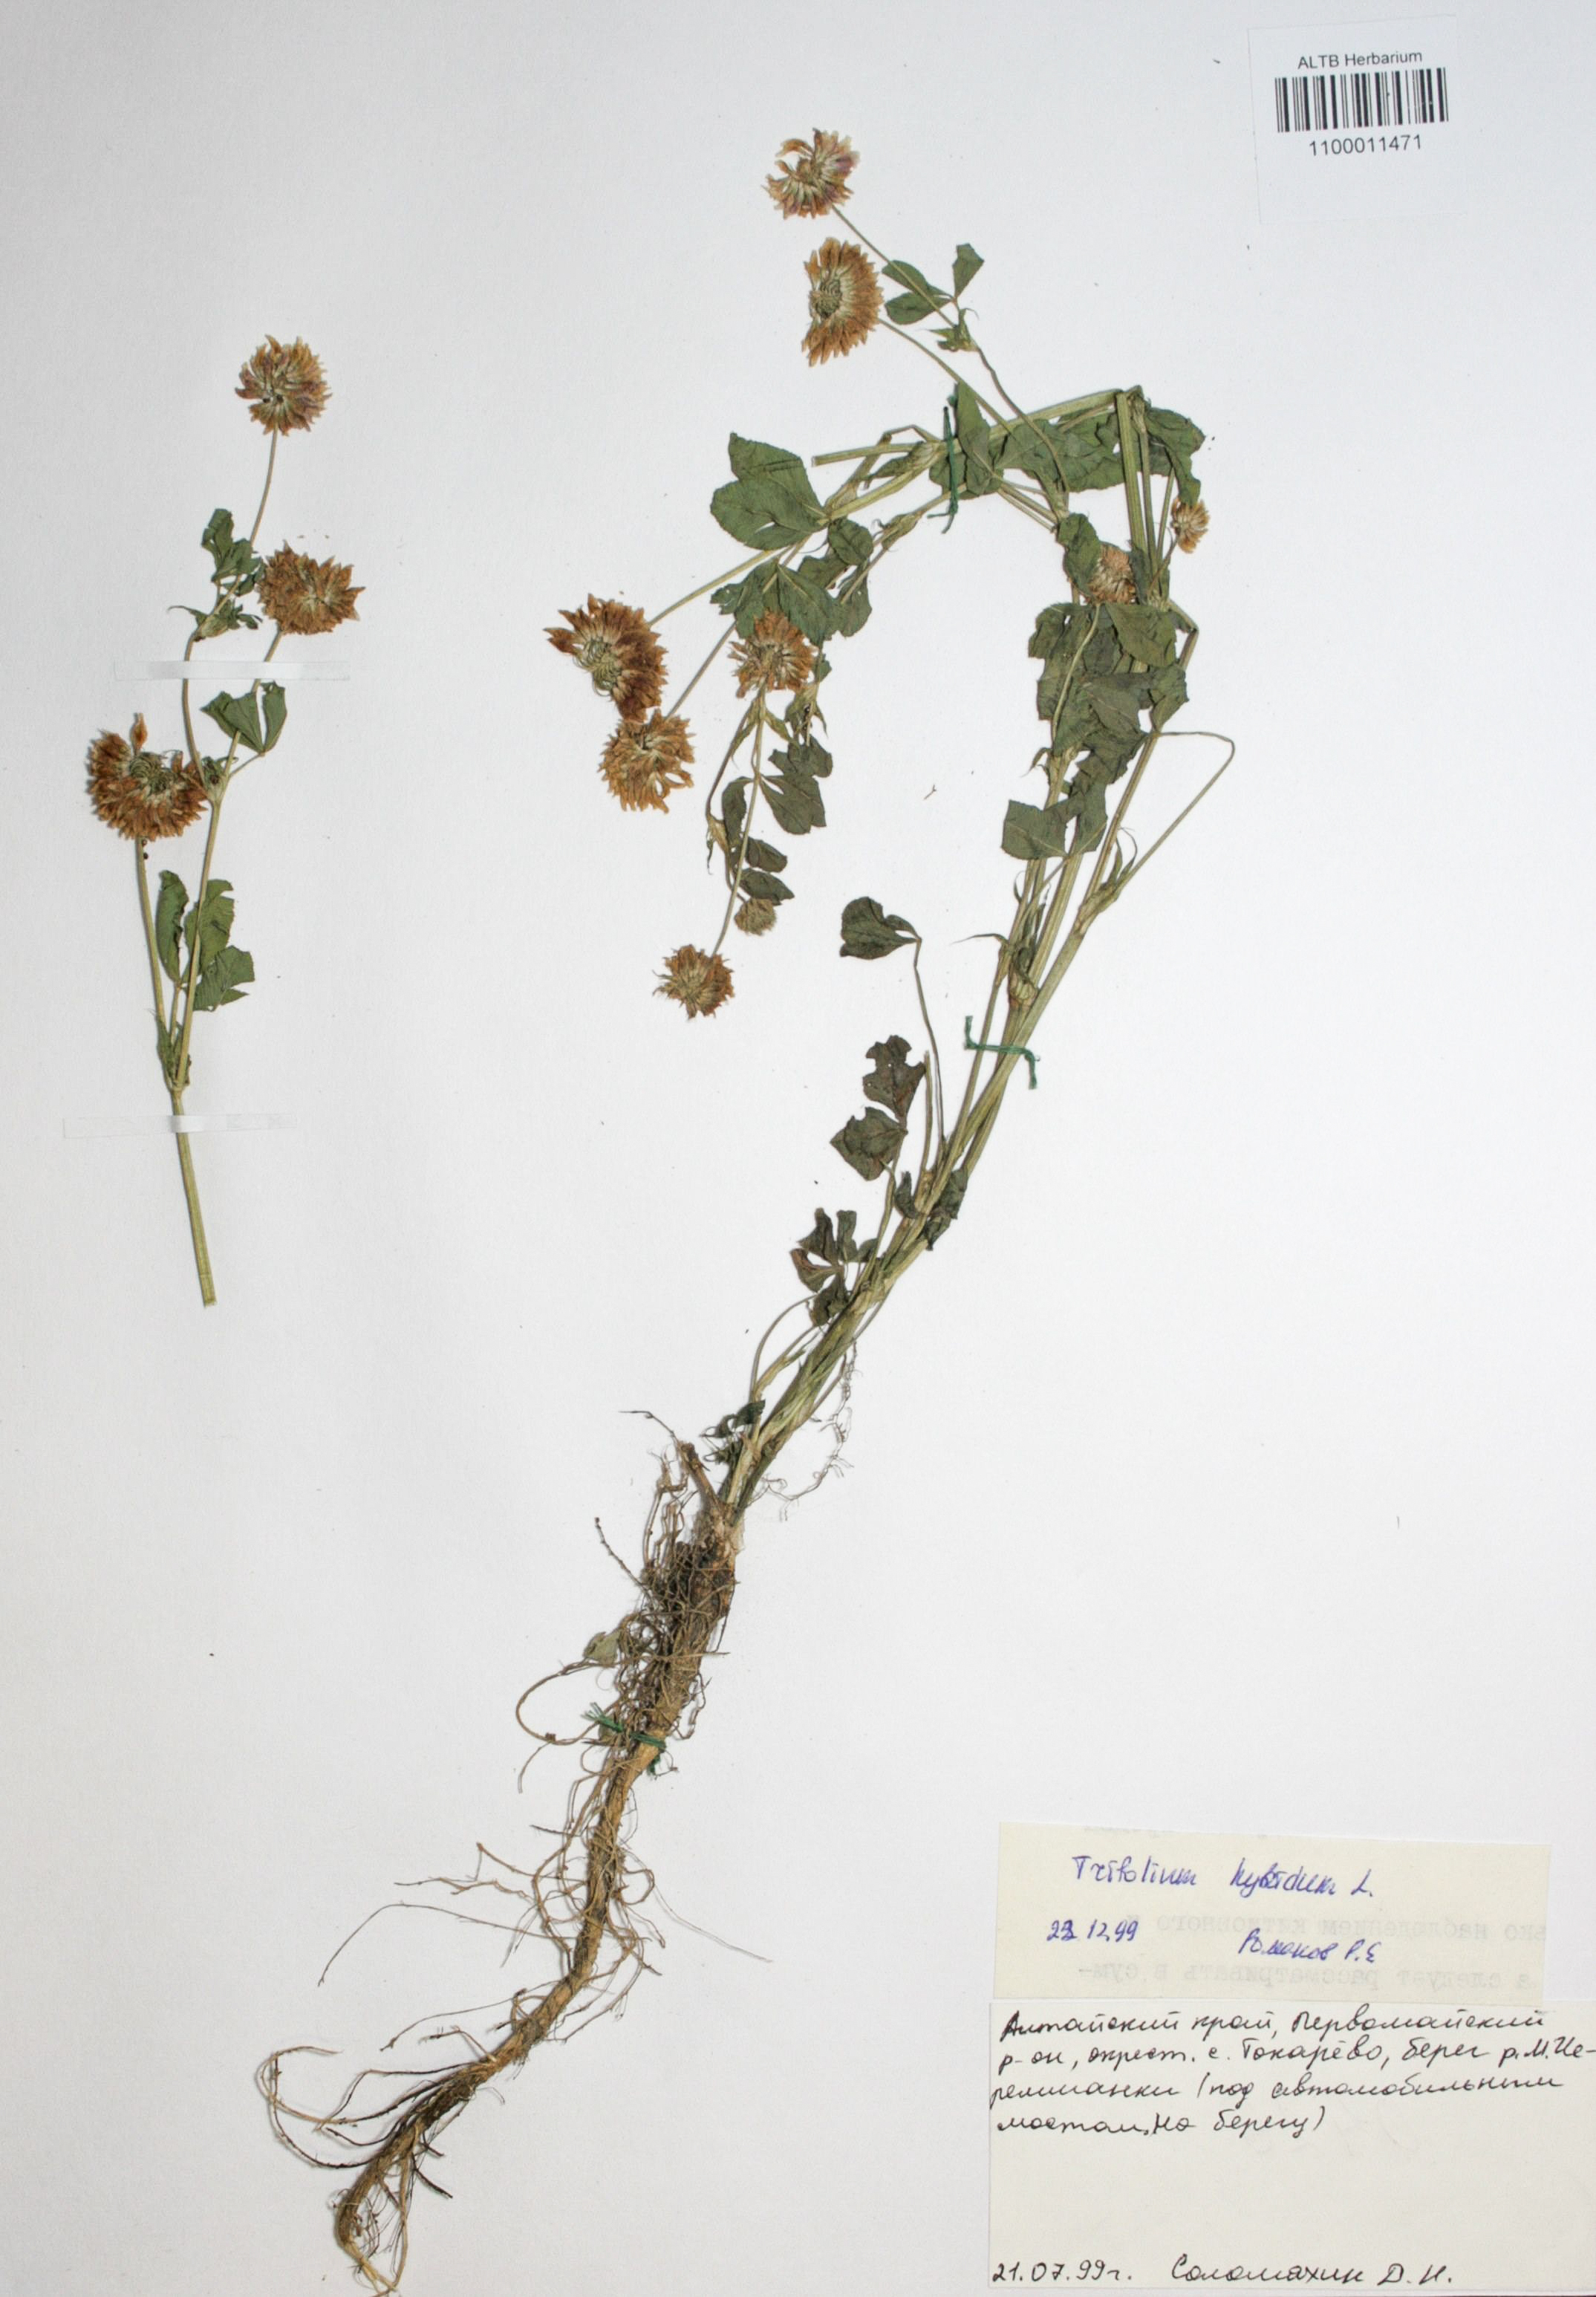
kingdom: Plantae
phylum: Tracheophyta
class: Magnoliopsida
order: Fabales
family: Fabaceae
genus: Trifolium
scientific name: Trifolium hybridum
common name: Alsike clover
